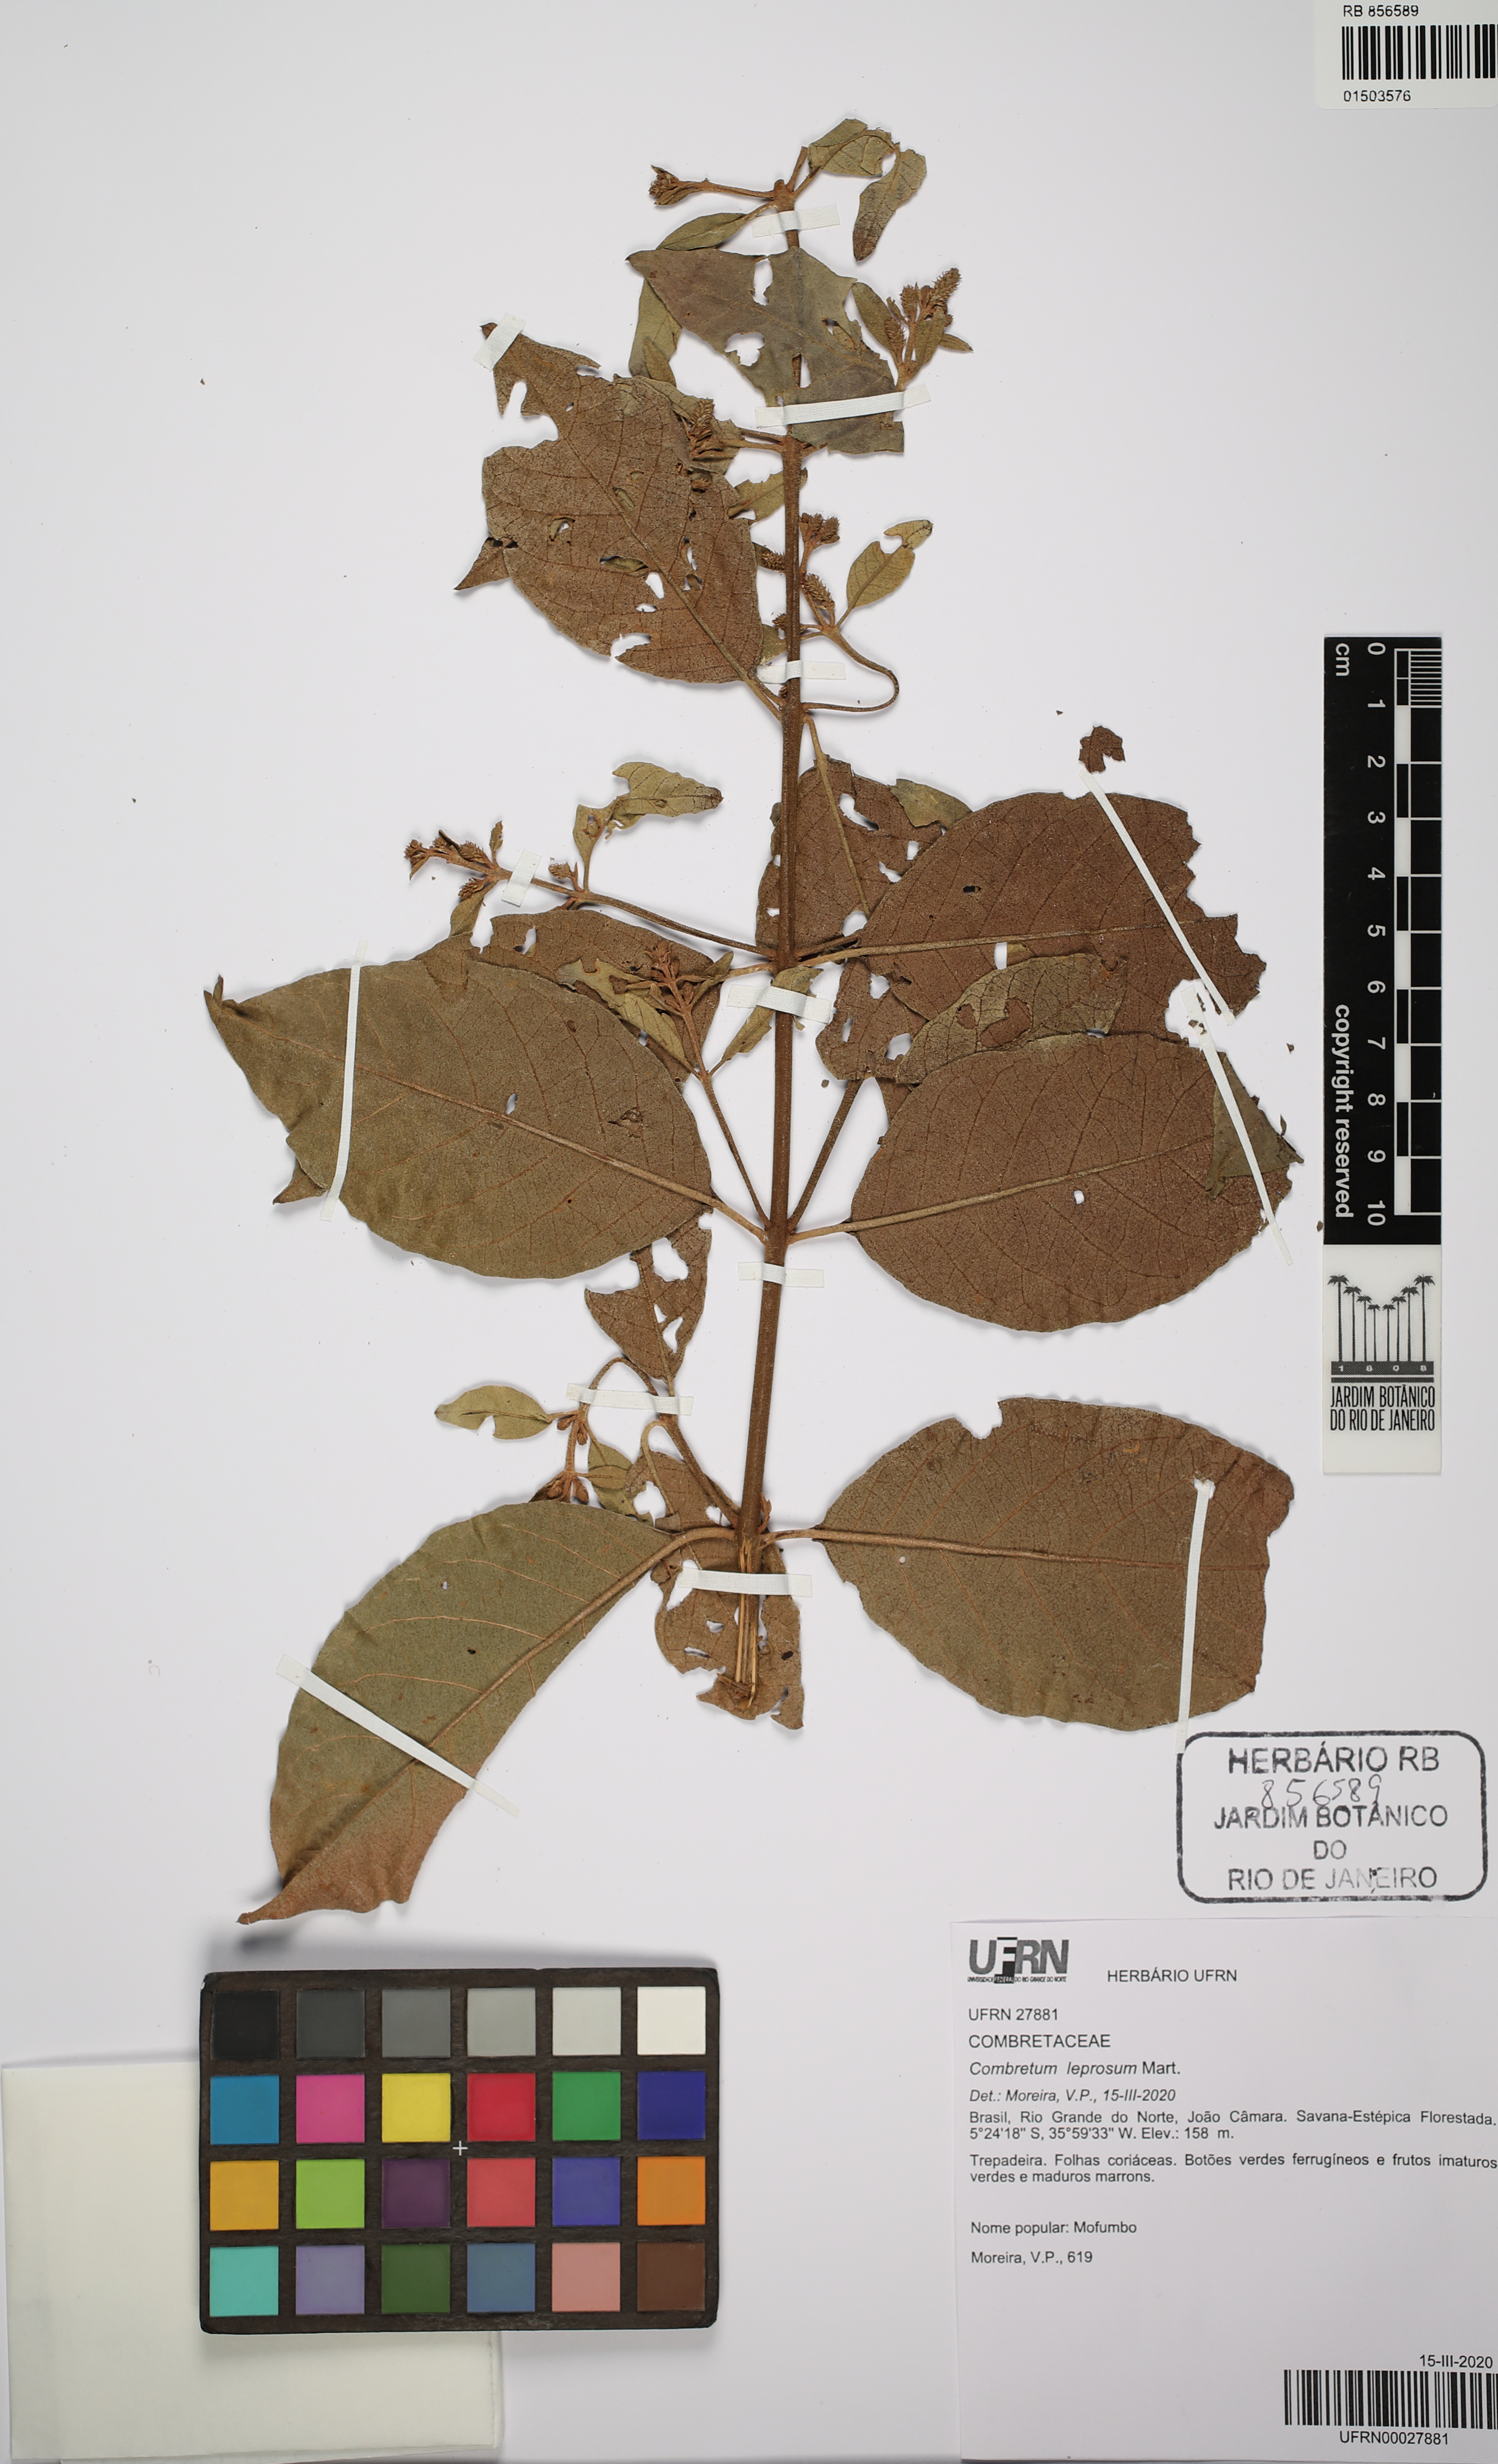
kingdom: Plantae
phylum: Tracheophyta
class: Magnoliopsida
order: Myrtales
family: Combretaceae
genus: Combretum
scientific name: Combretum leprosum
